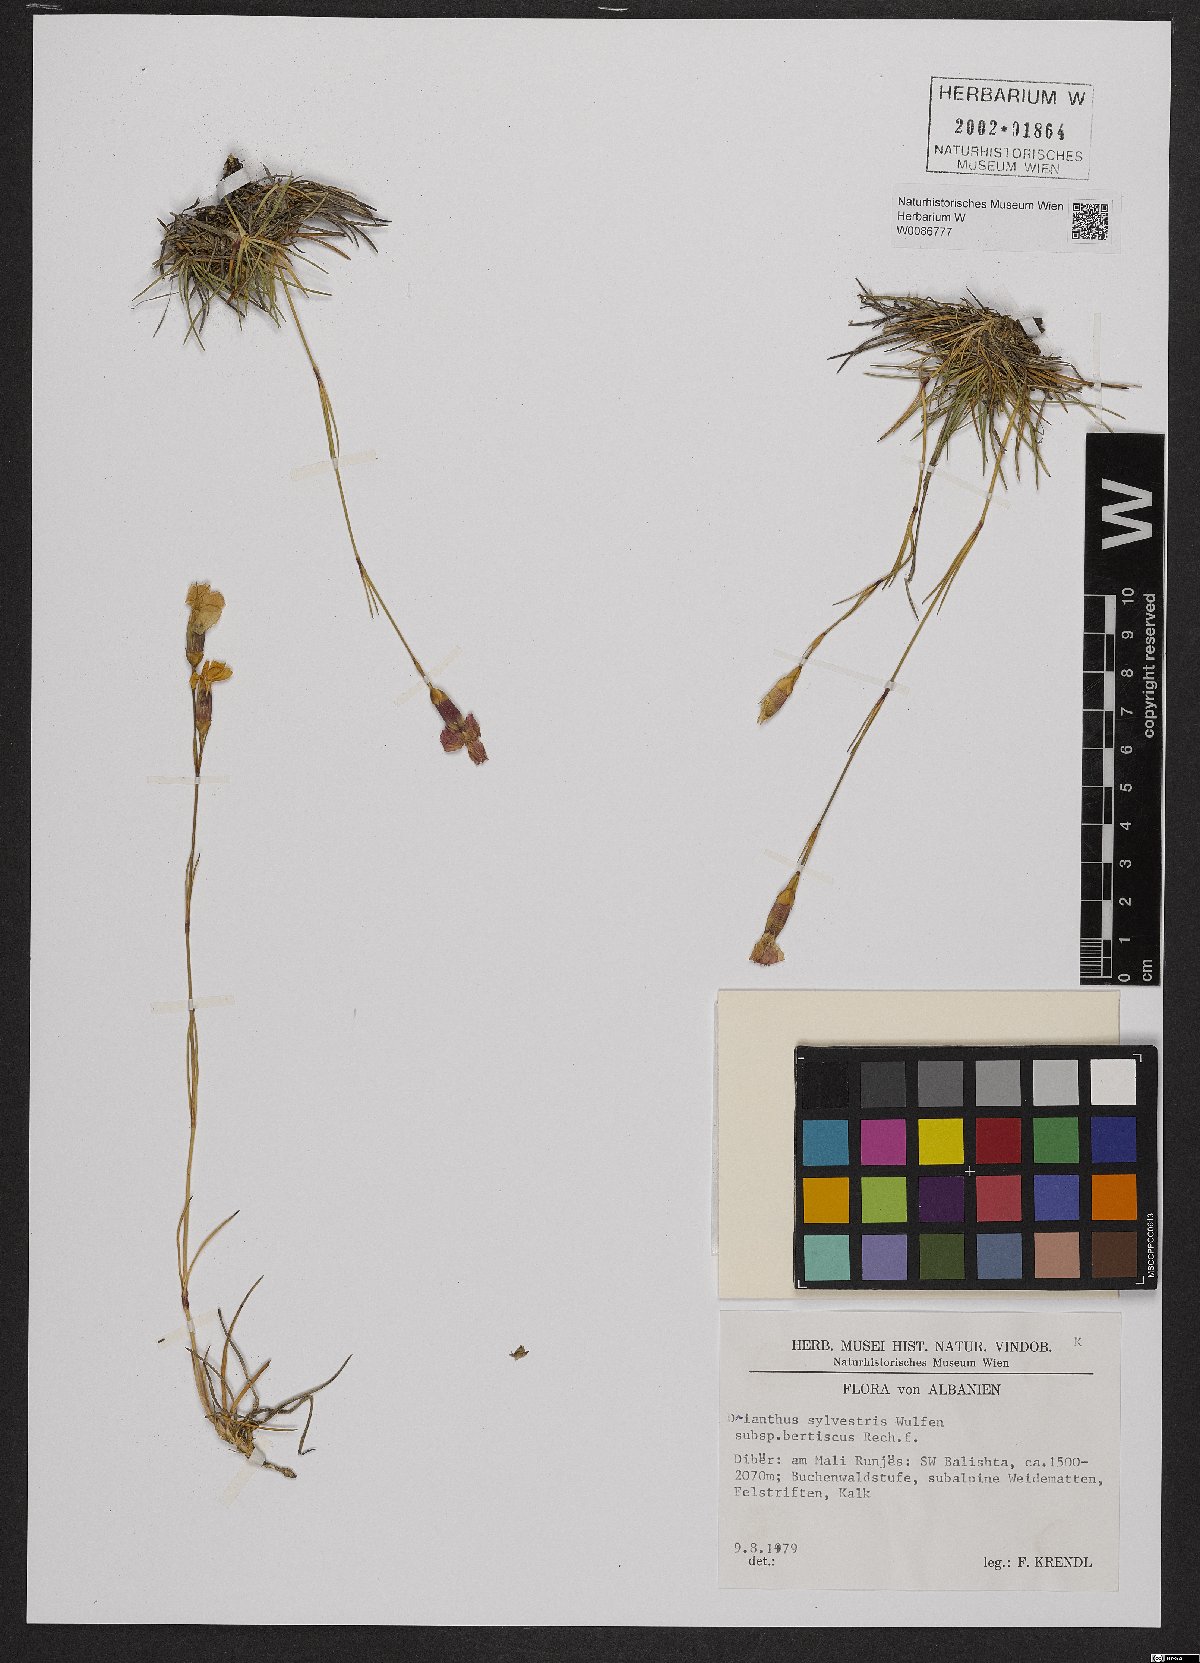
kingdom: Plantae
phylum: Tracheophyta
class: Magnoliopsida
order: Caryophyllales
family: Caryophyllaceae
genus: Dianthus
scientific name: Dianthus sylvestris
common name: Wood pink
